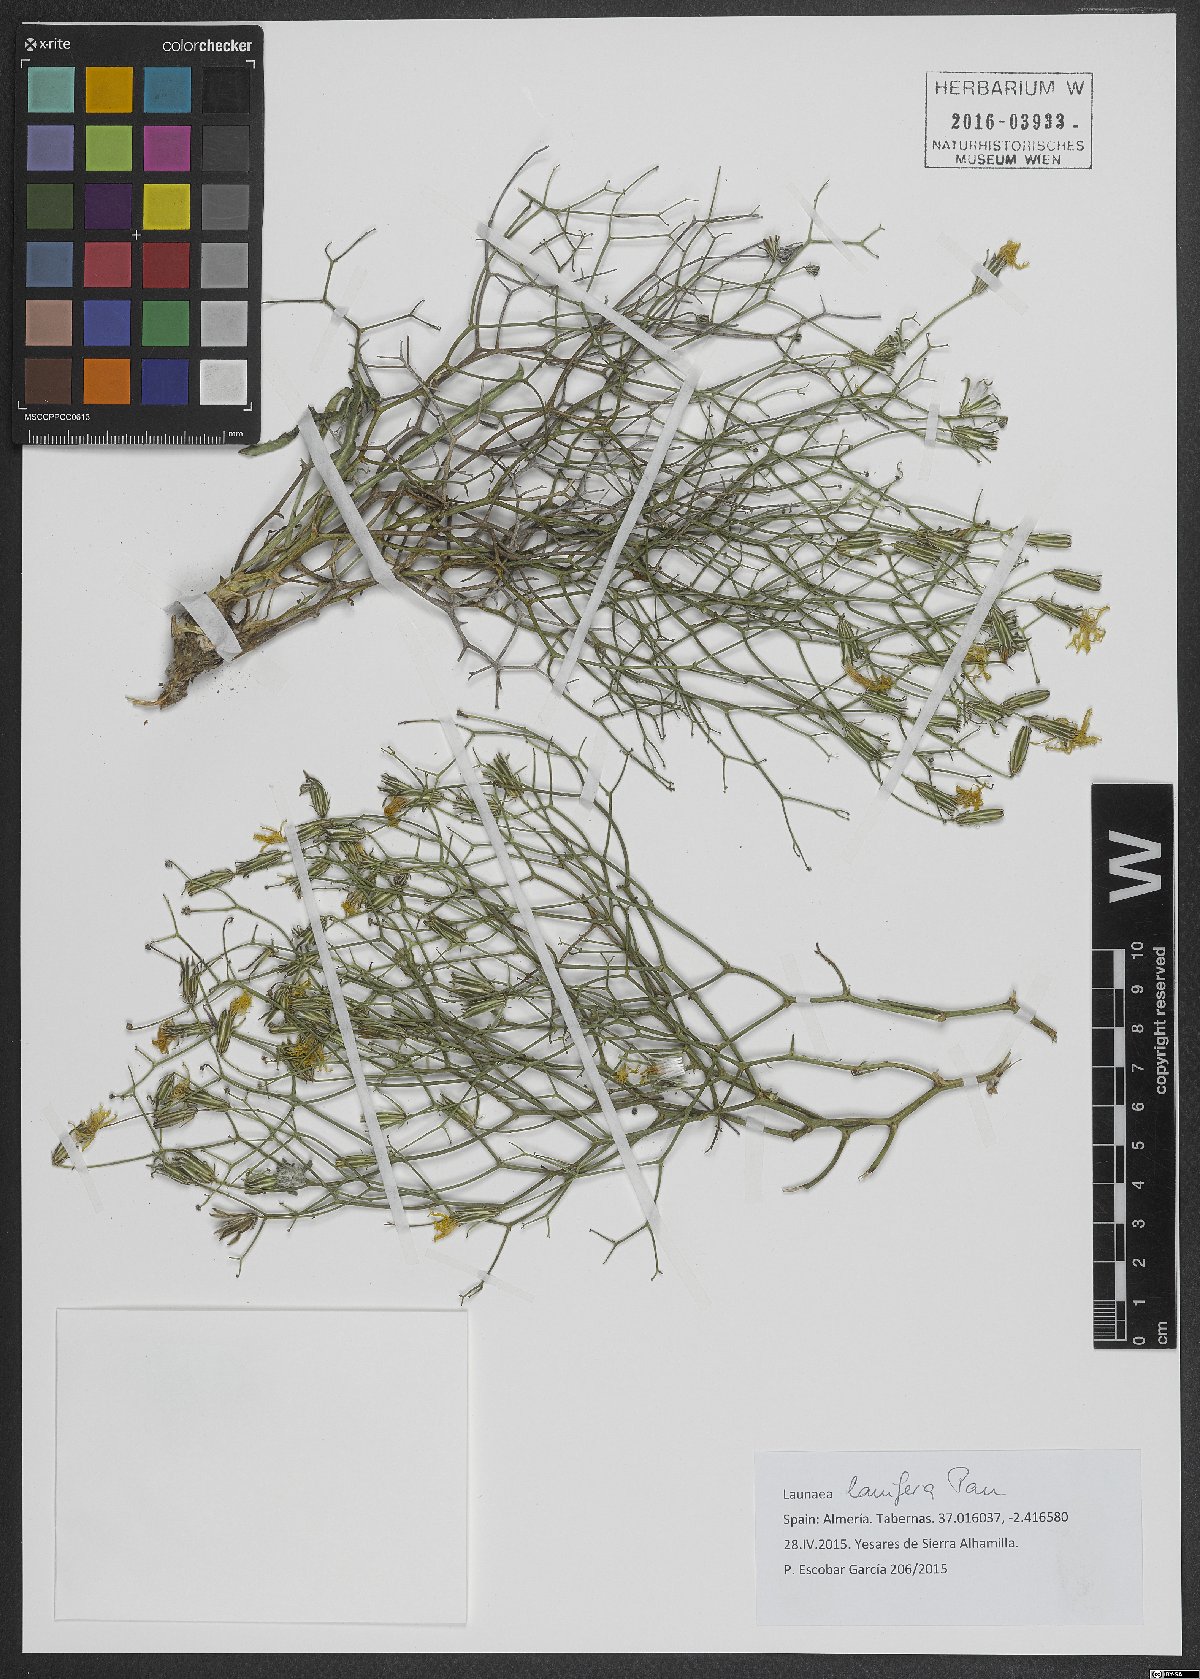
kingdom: Plantae
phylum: Tracheophyta
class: Magnoliopsida
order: Asterales
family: Asteraceae
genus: Launaea
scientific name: Launaea lanifera
